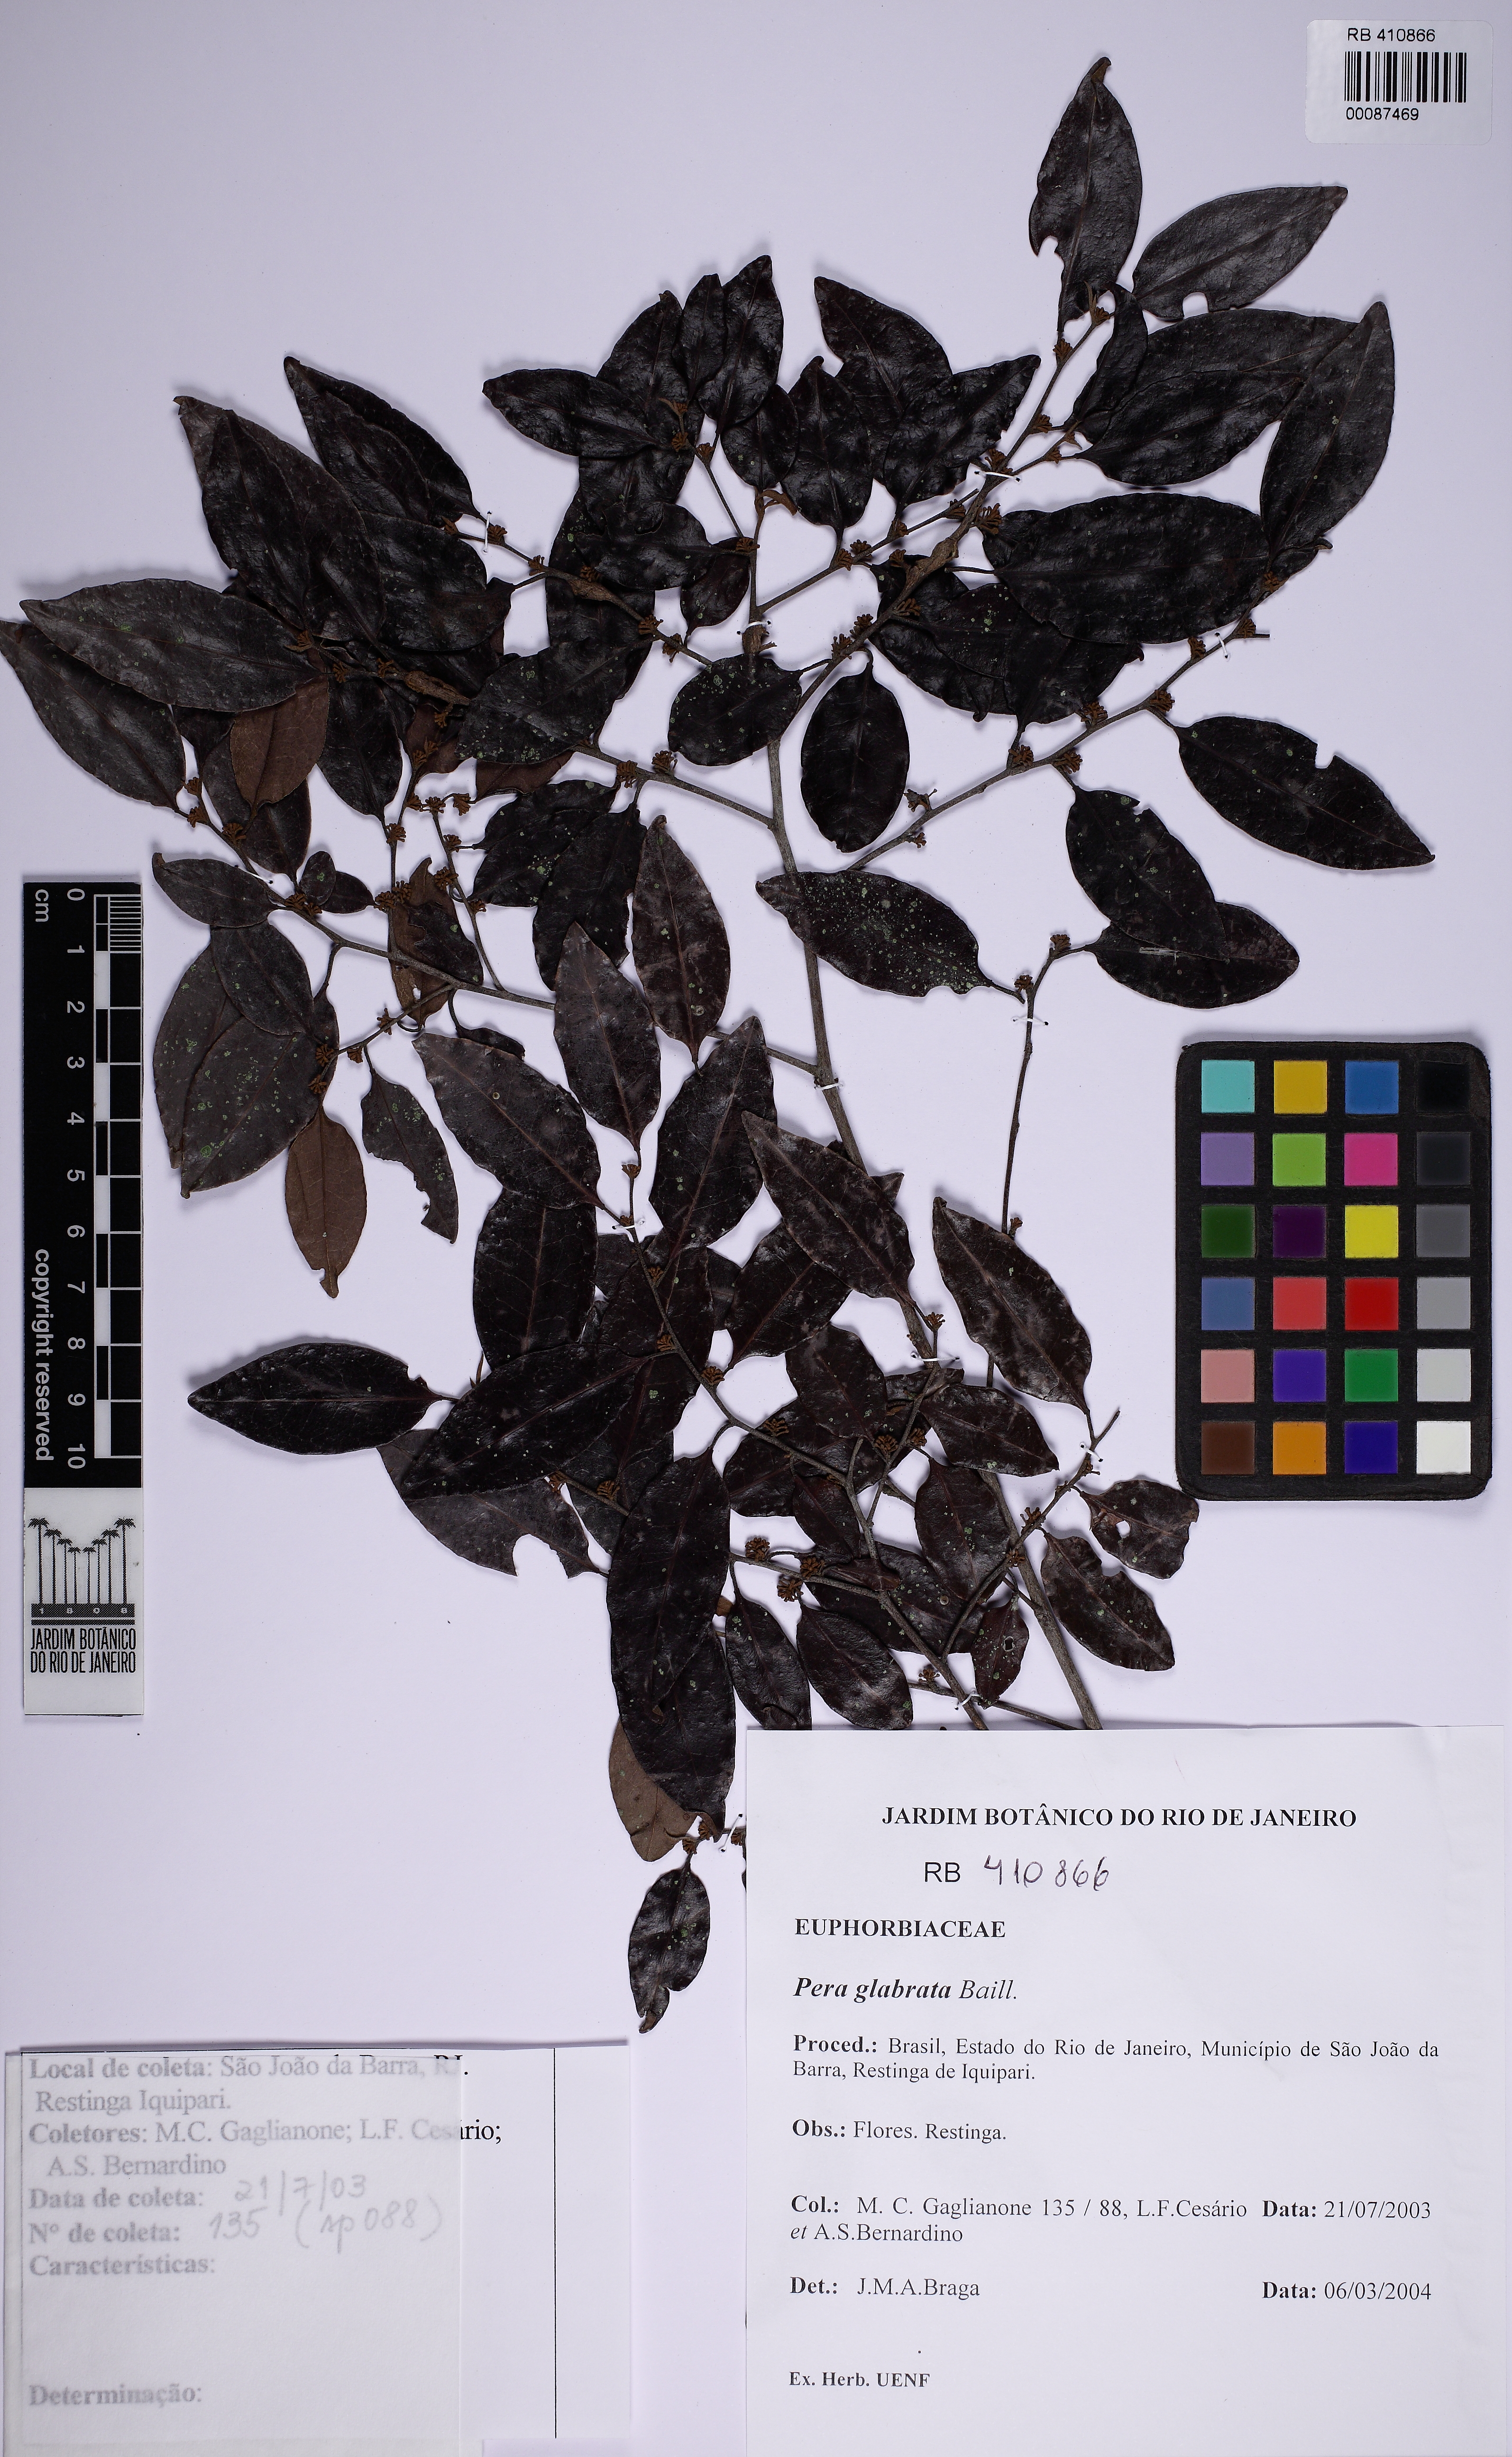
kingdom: Plantae
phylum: Tracheophyta
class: Magnoliopsida
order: Malpighiales
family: Peraceae
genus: Pera
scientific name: Pera glabrata
